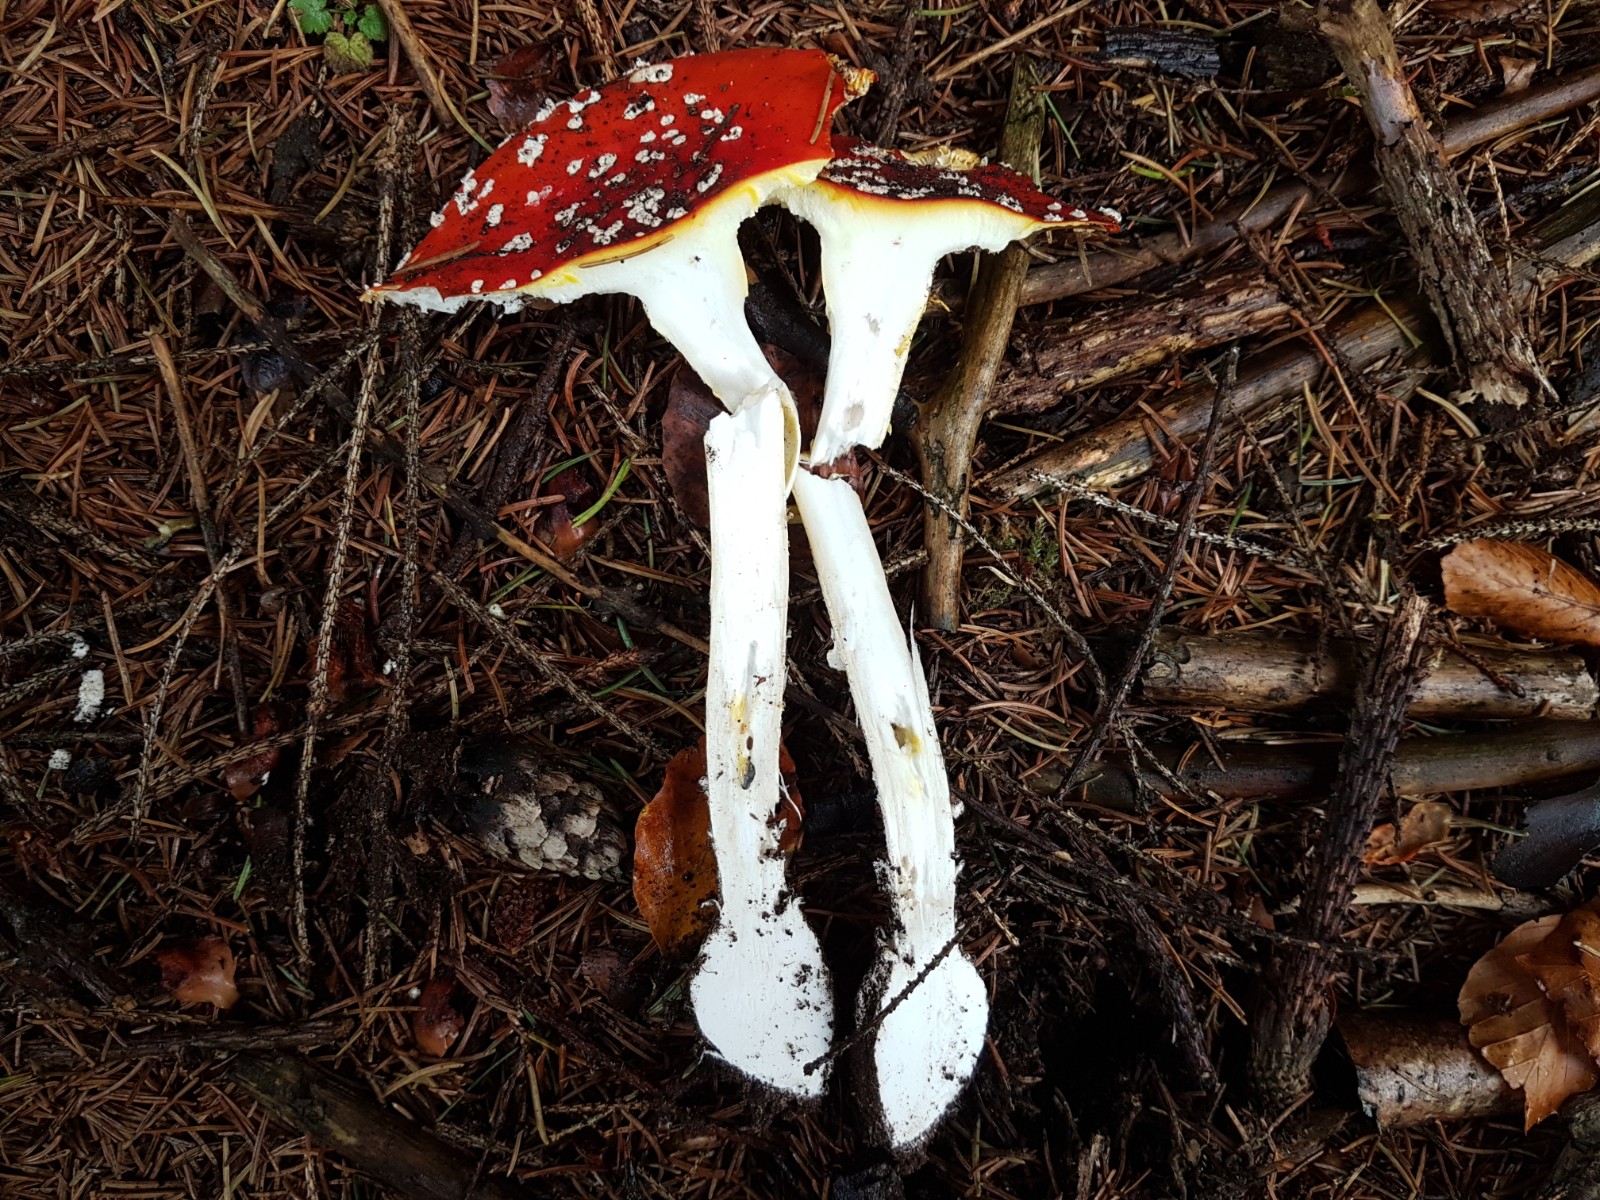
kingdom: Fungi
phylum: Basidiomycota
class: Agaricomycetes
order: Agaricales
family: Amanitaceae
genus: Amanita
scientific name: Amanita muscaria
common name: rød fluesvamp
